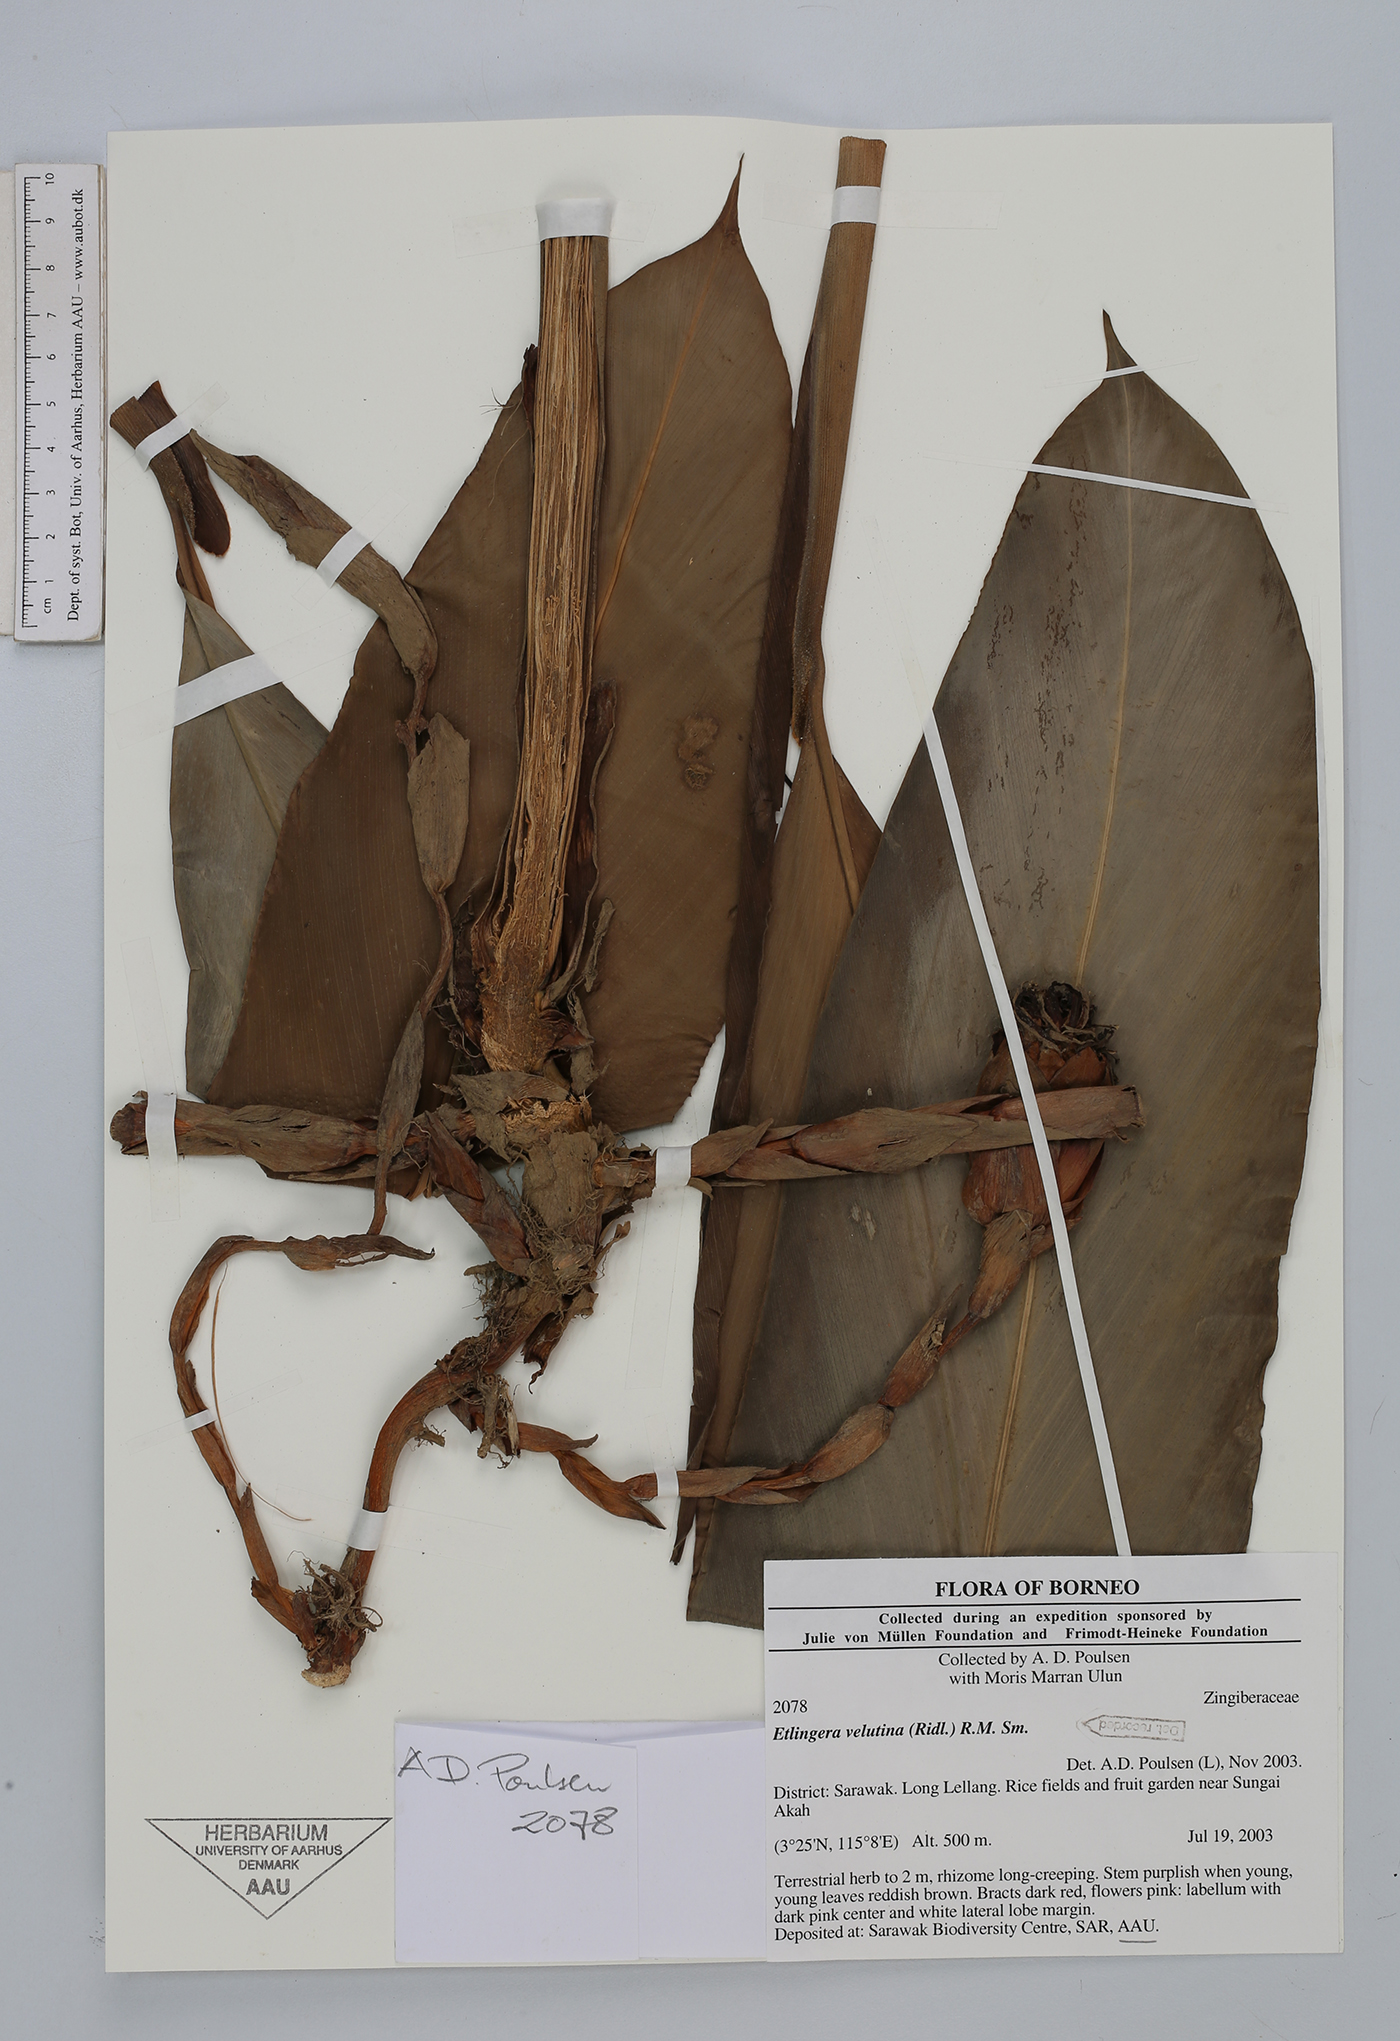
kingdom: Plantae
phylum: Tracheophyta
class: Liliopsida
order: Zingiberales
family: Zingiberaceae
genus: Etlingera
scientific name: Etlingera velutina
